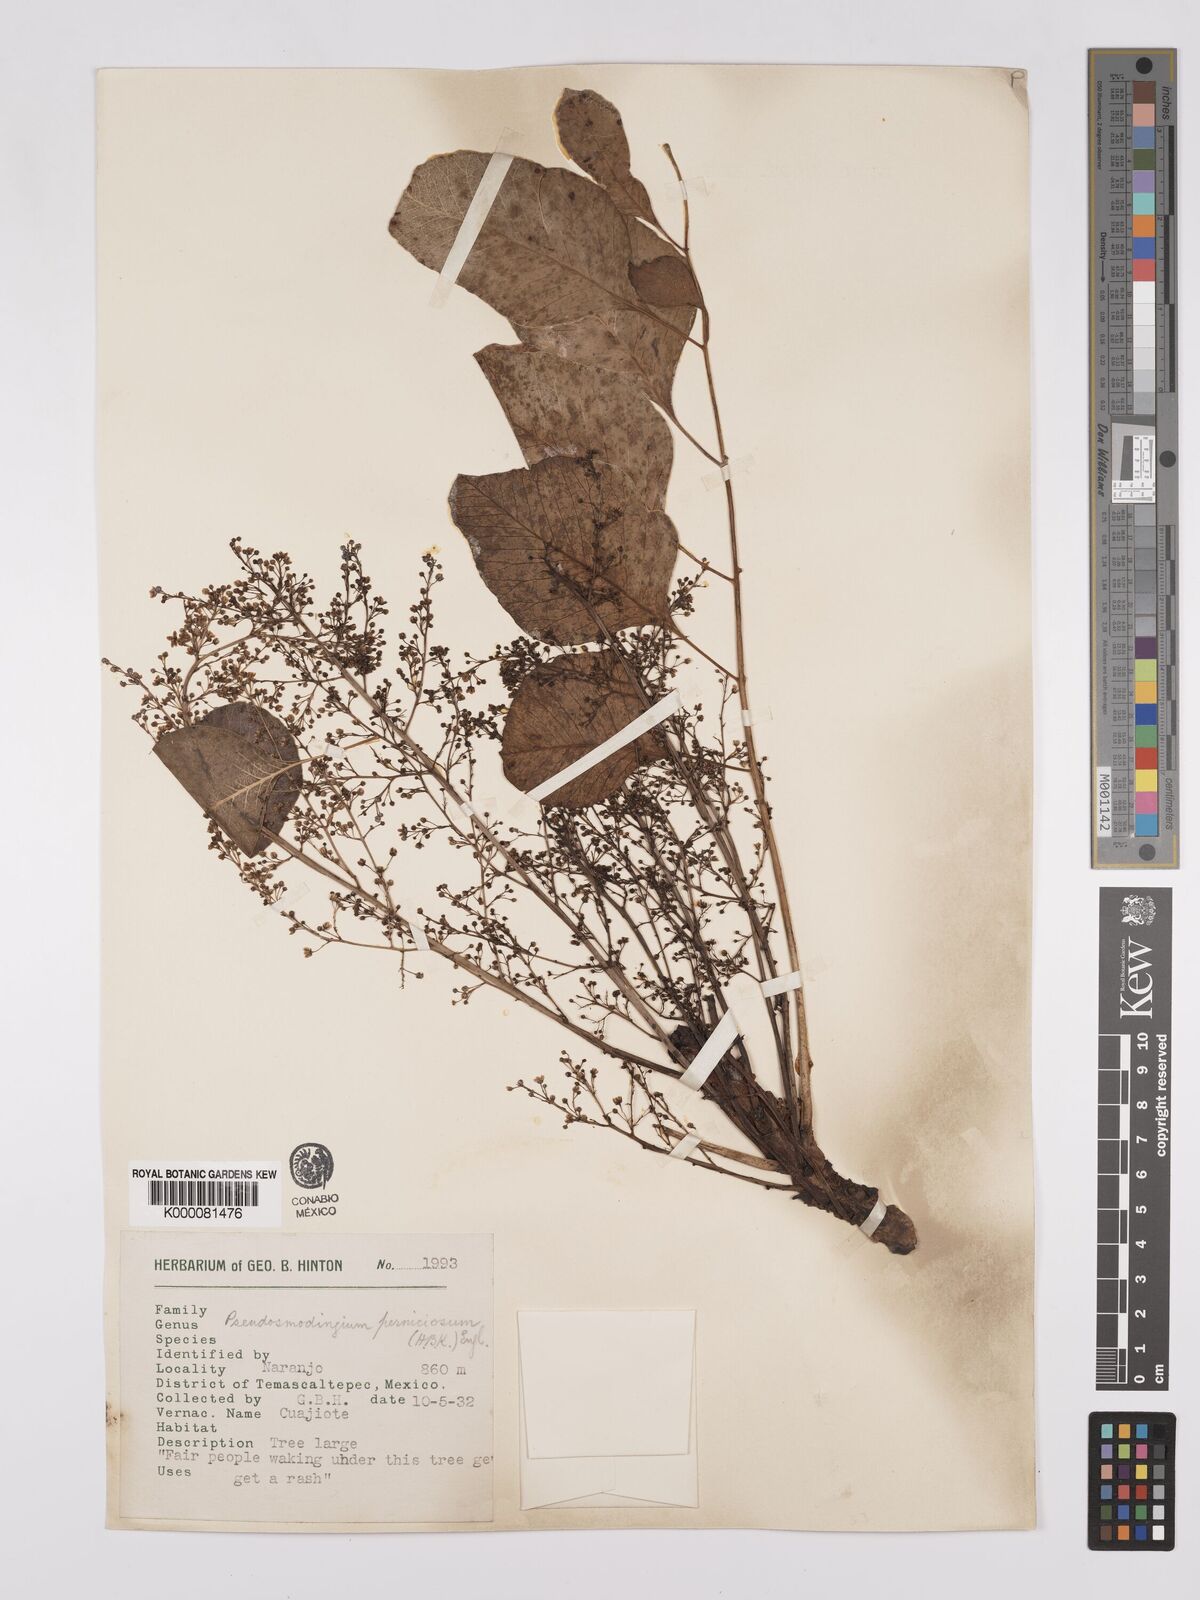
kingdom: Plantae
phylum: Tracheophyta
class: Magnoliopsida
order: Sapindales
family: Anacardiaceae
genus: Pseudosmodingium
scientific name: Pseudosmodingium perniciosum
